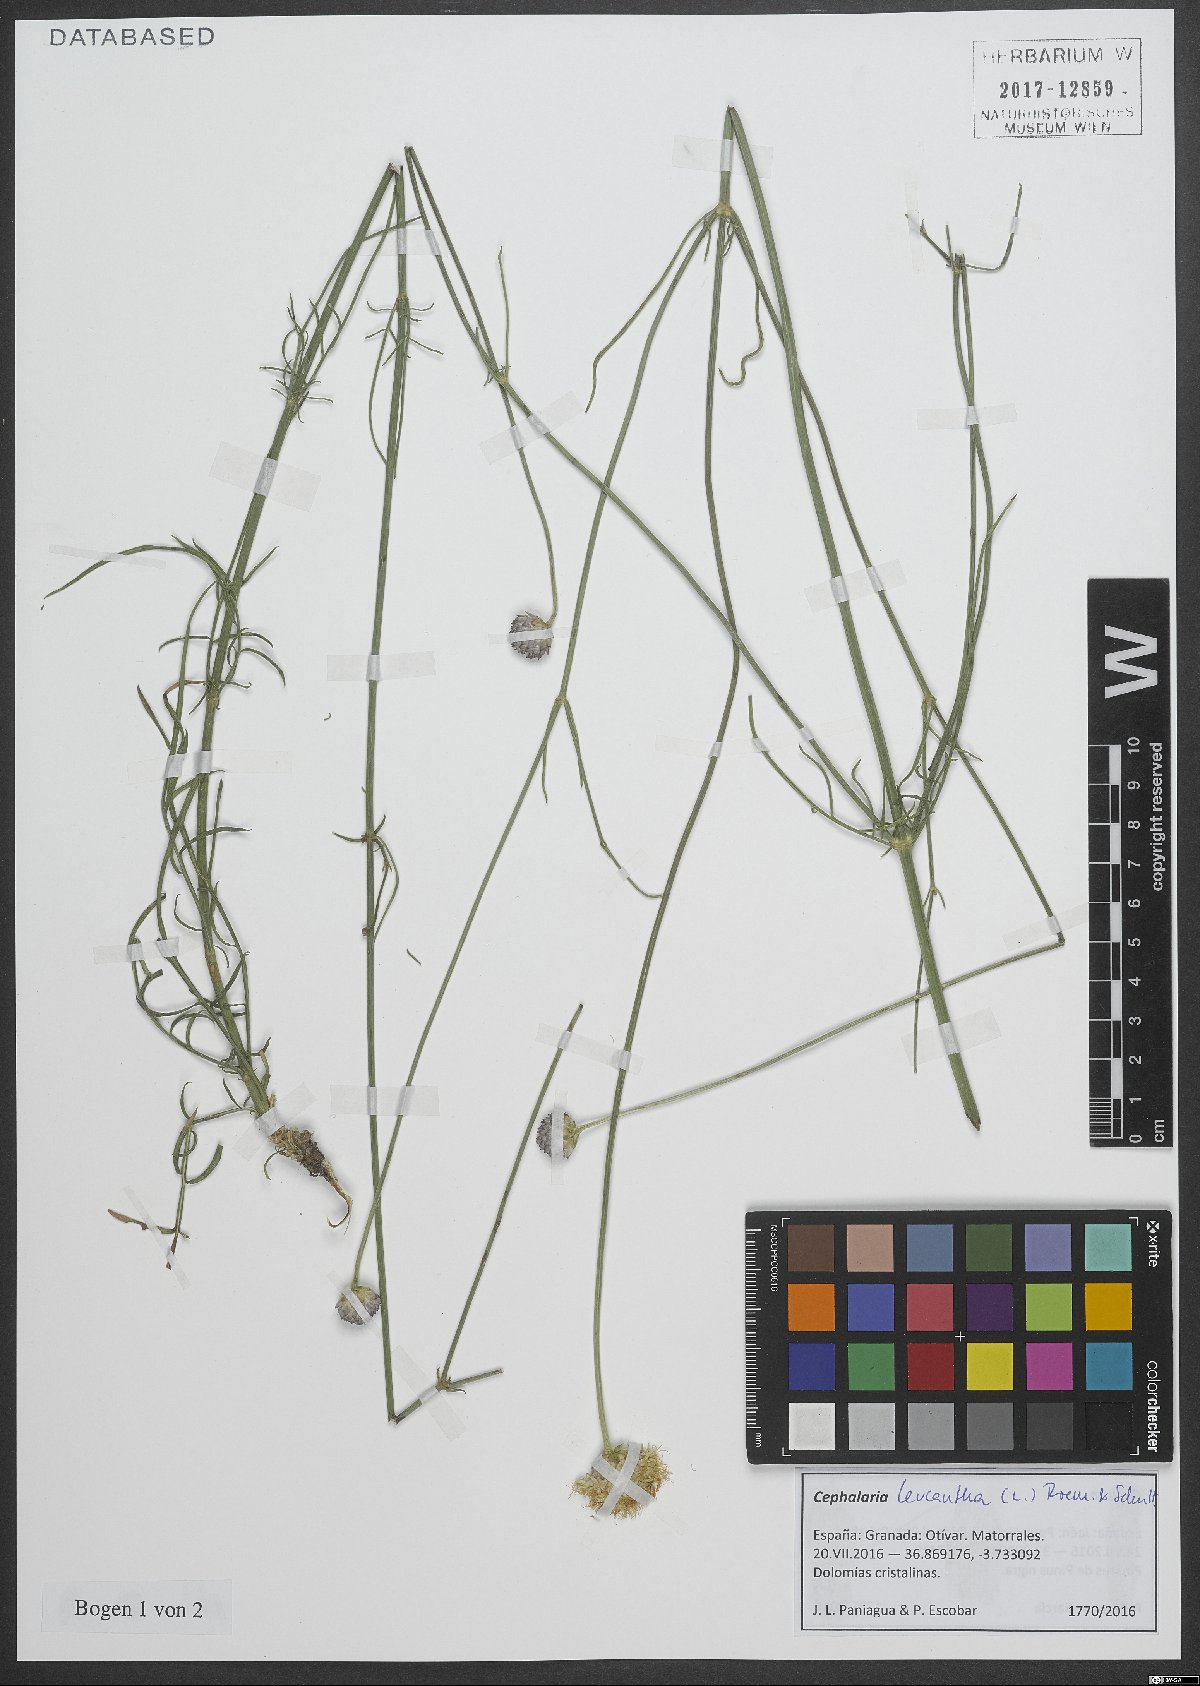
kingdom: Plantae
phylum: Tracheophyta
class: Magnoliopsida
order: Dipsacales
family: Caprifoliaceae
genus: Cephalaria
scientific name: Cephalaria leucantha
